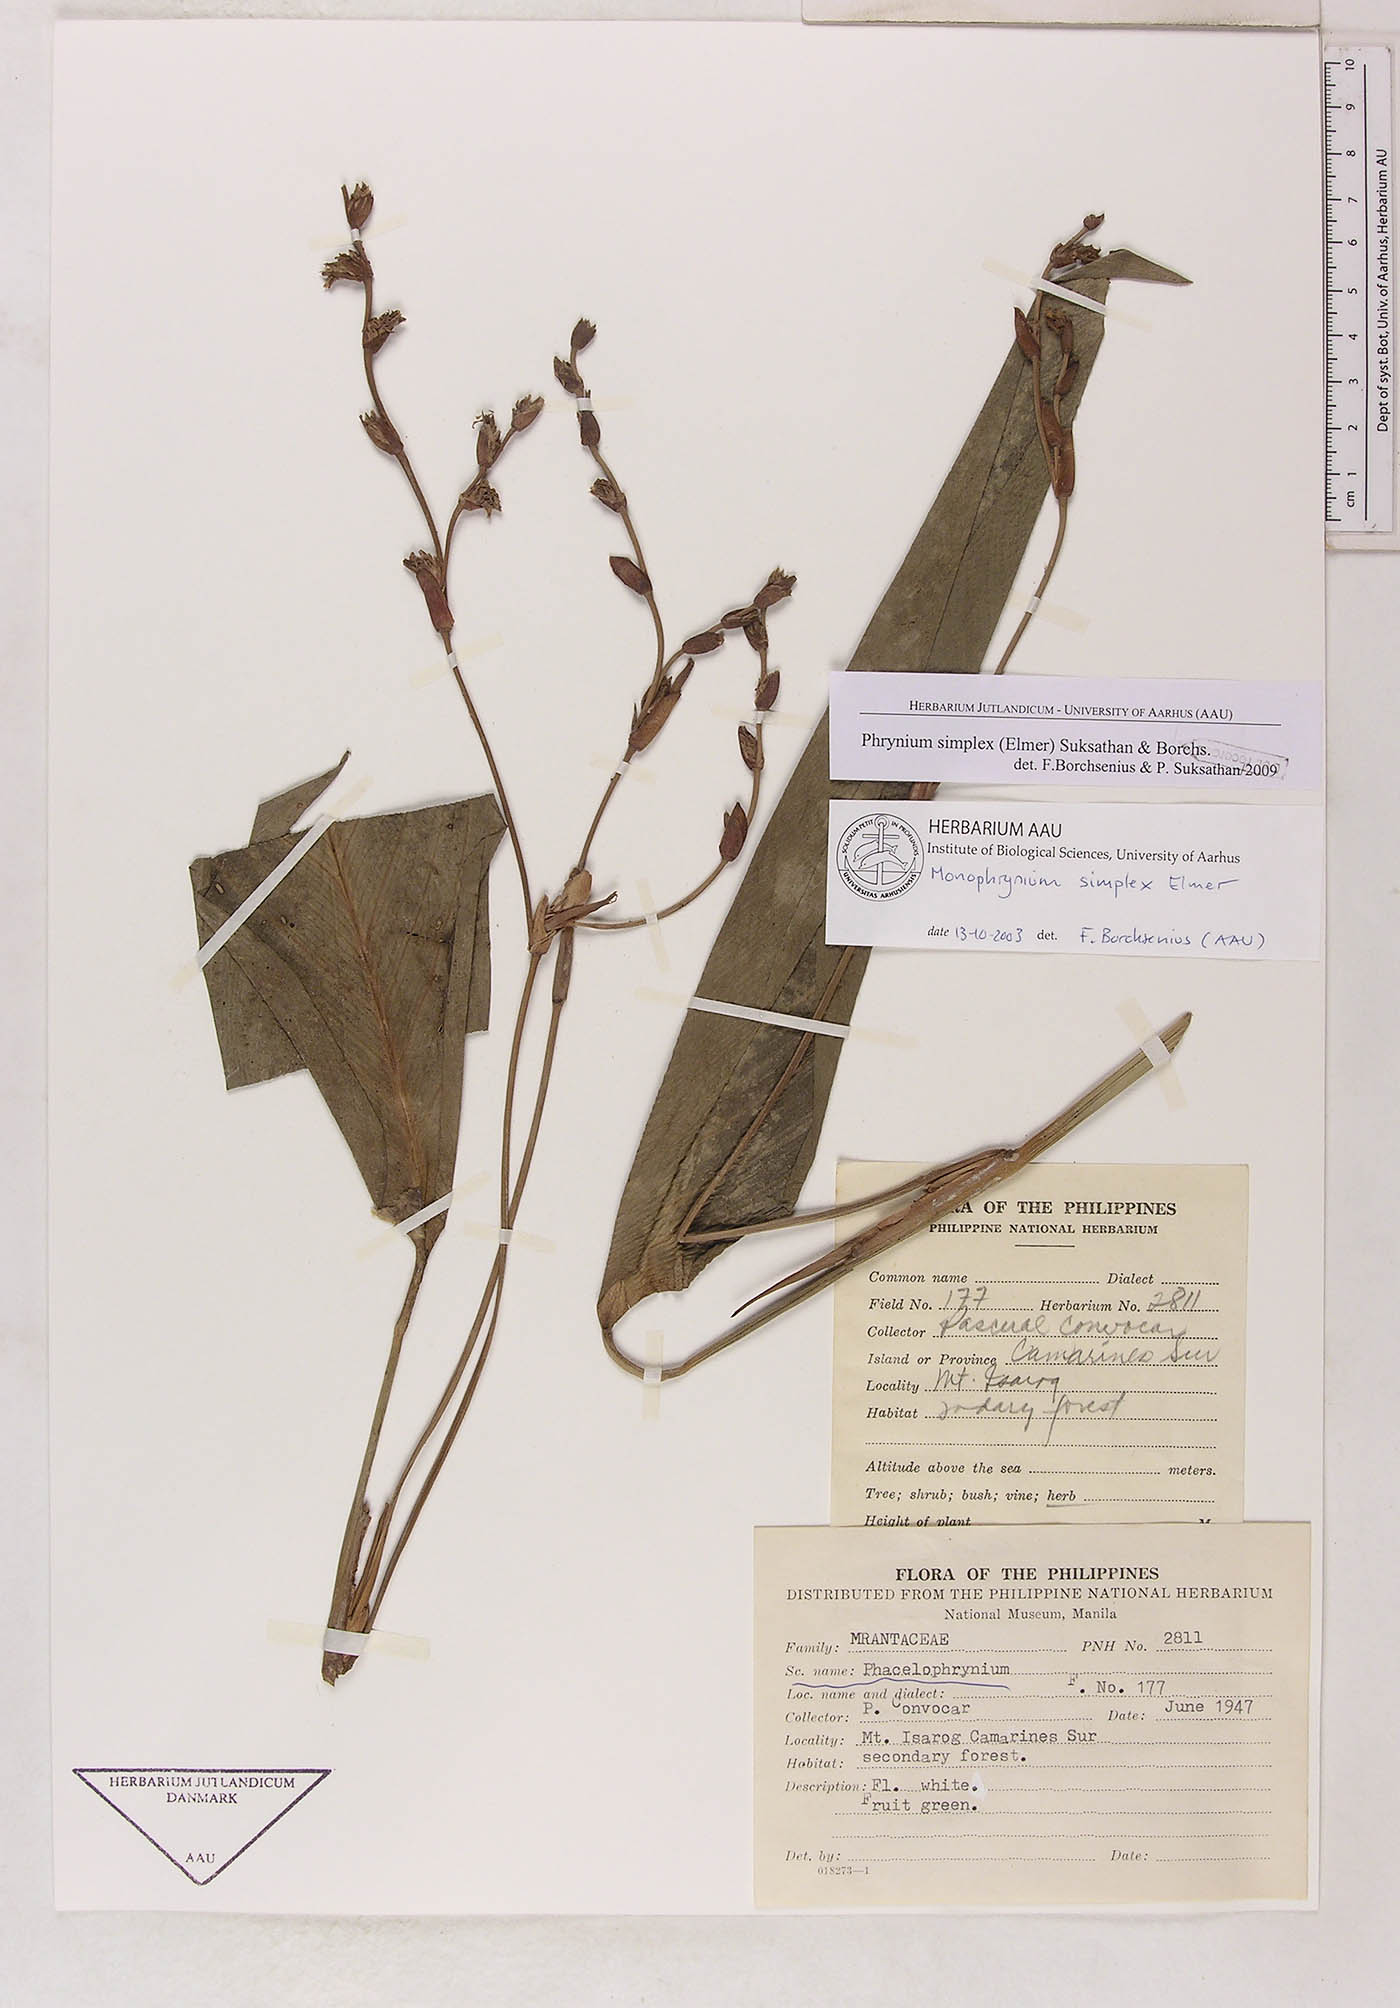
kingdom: Plantae
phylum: Tracheophyta
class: Liliopsida
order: Zingiberales
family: Marantaceae
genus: Phrynium
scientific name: Phrynium simplex
